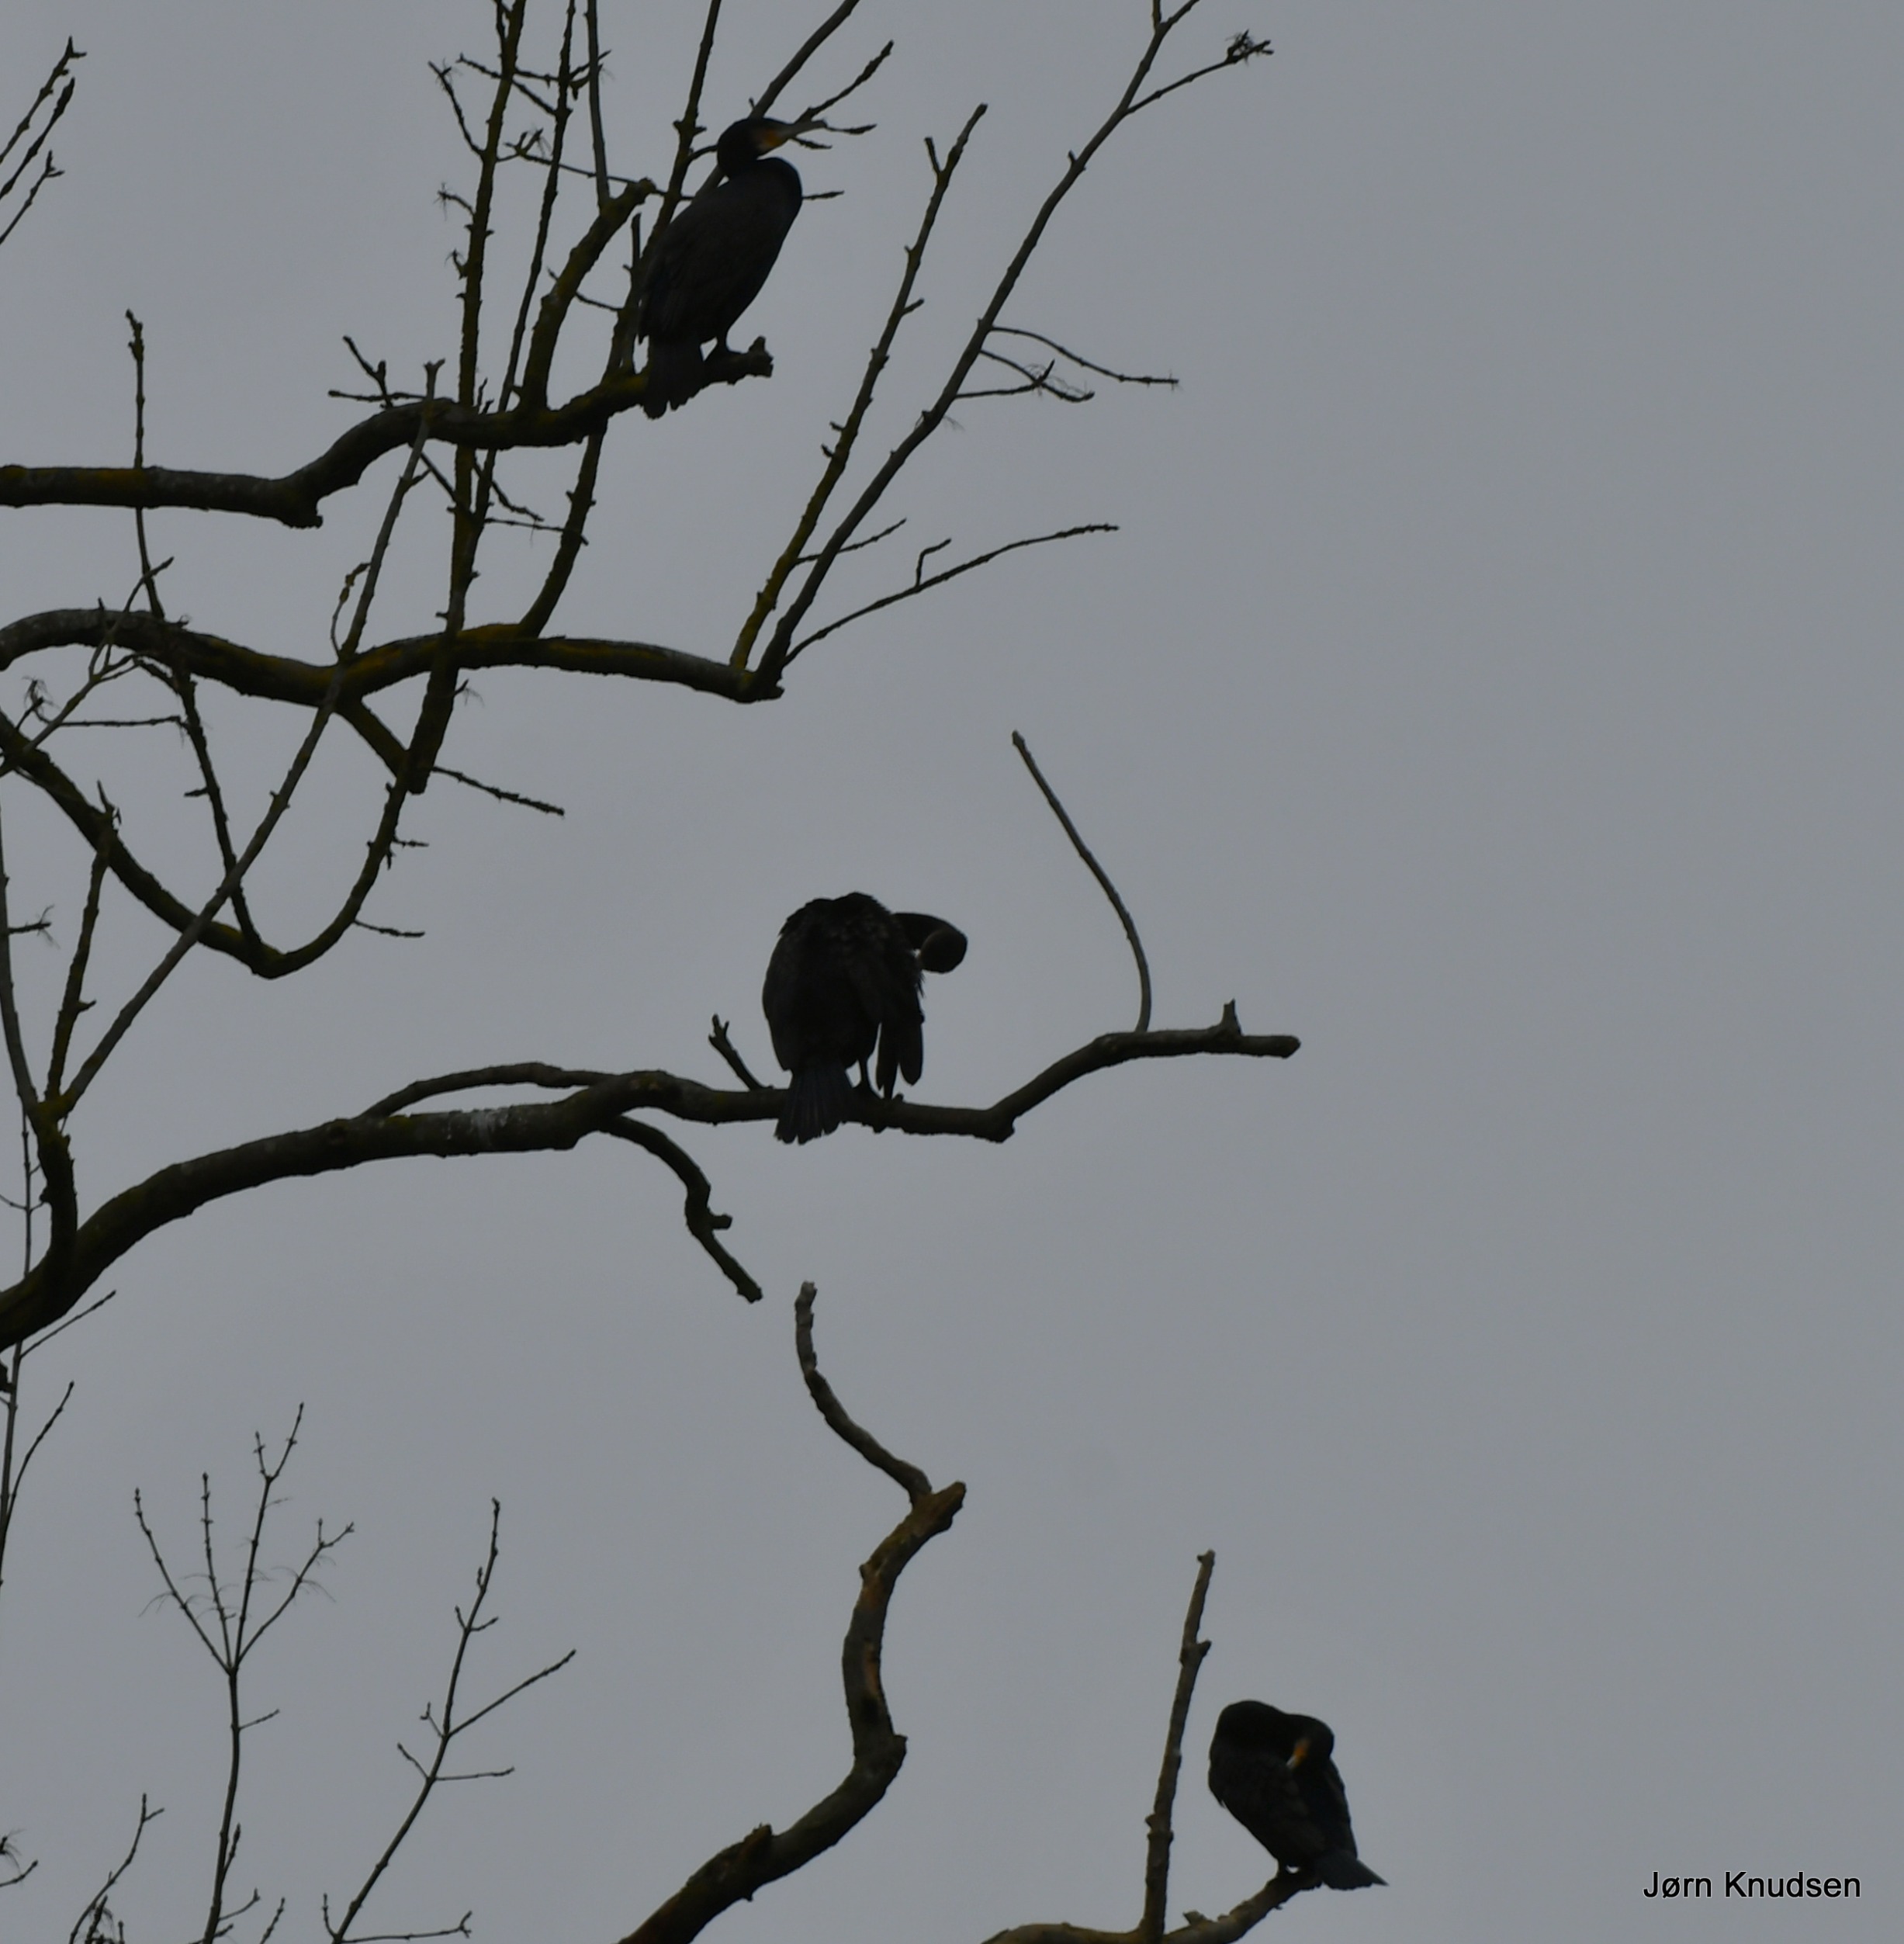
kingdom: Animalia
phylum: Chordata
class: Aves
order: Suliformes
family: Phalacrocoracidae
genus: Phalacrocorax
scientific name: Phalacrocorax carbo
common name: Skarv
